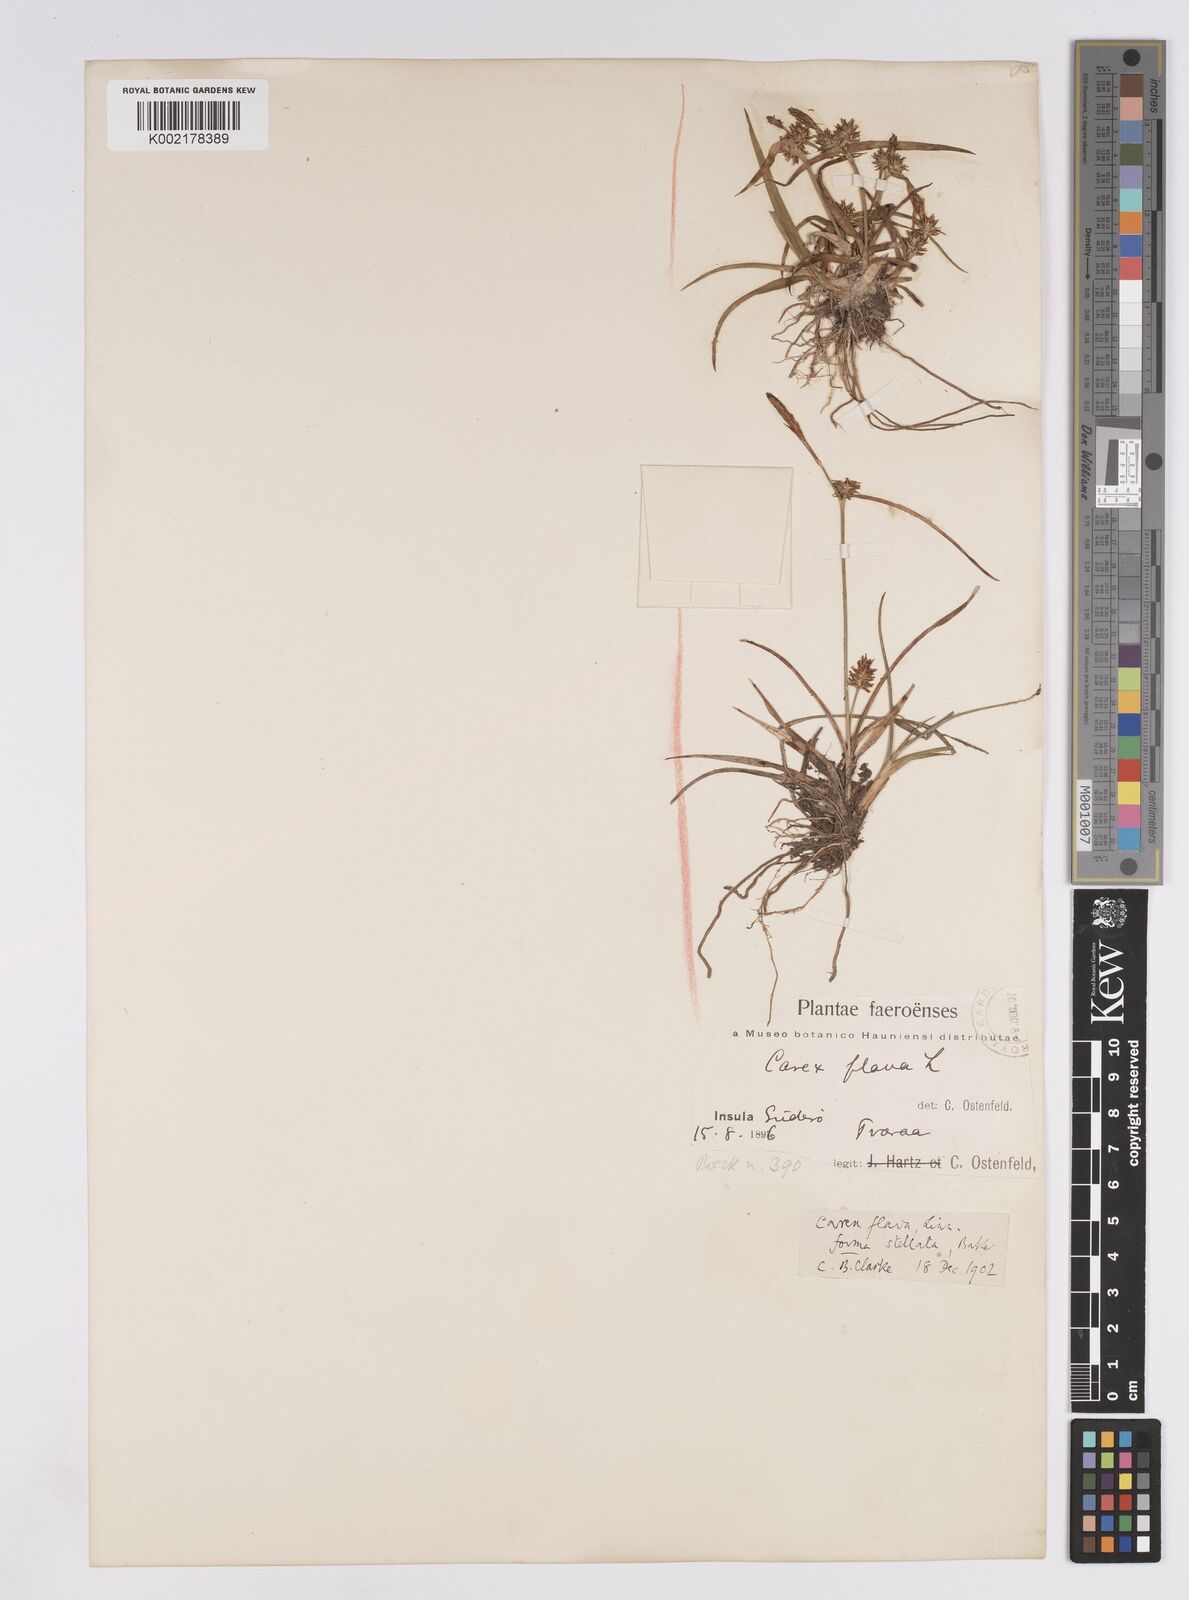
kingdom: Plantae
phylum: Tracheophyta
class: Liliopsida
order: Poales
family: Cyperaceae
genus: Carex
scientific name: Carex demissa
